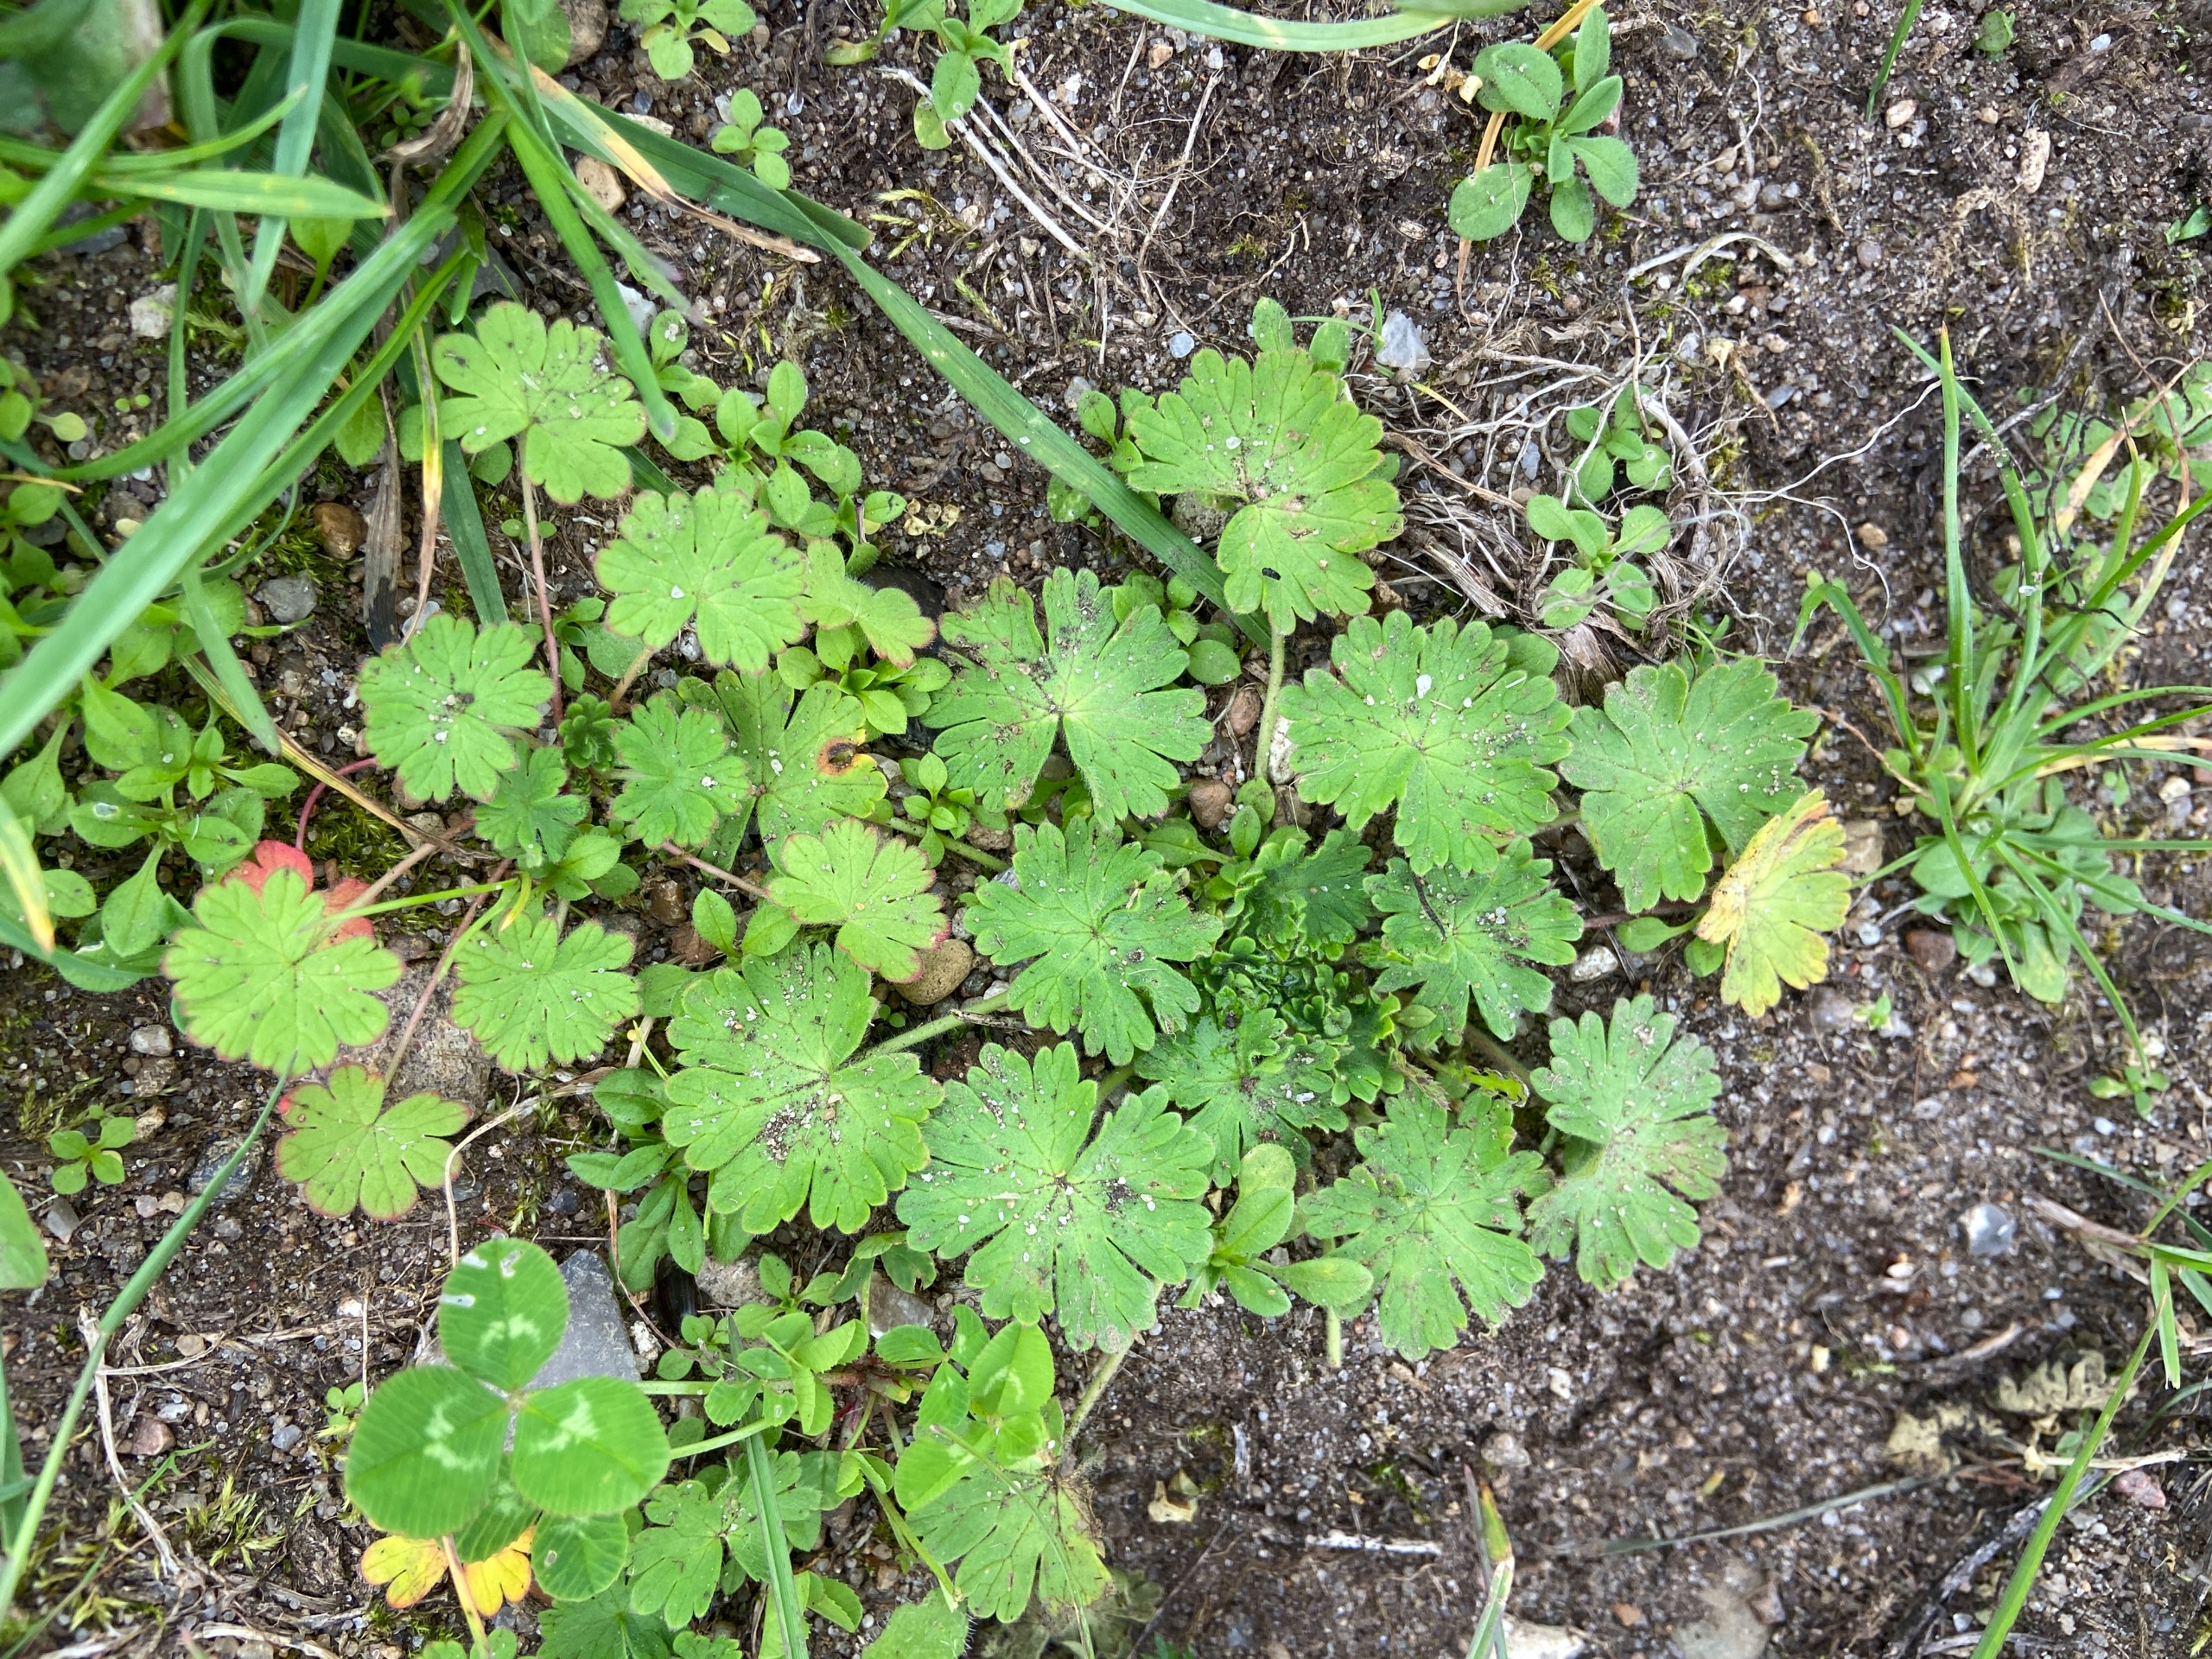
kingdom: Plantae
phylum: Tracheophyta
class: Magnoliopsida
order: Geraniales
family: Geraniaceae
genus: Geranium
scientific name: Geranium molle
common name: Blød storkenæb
